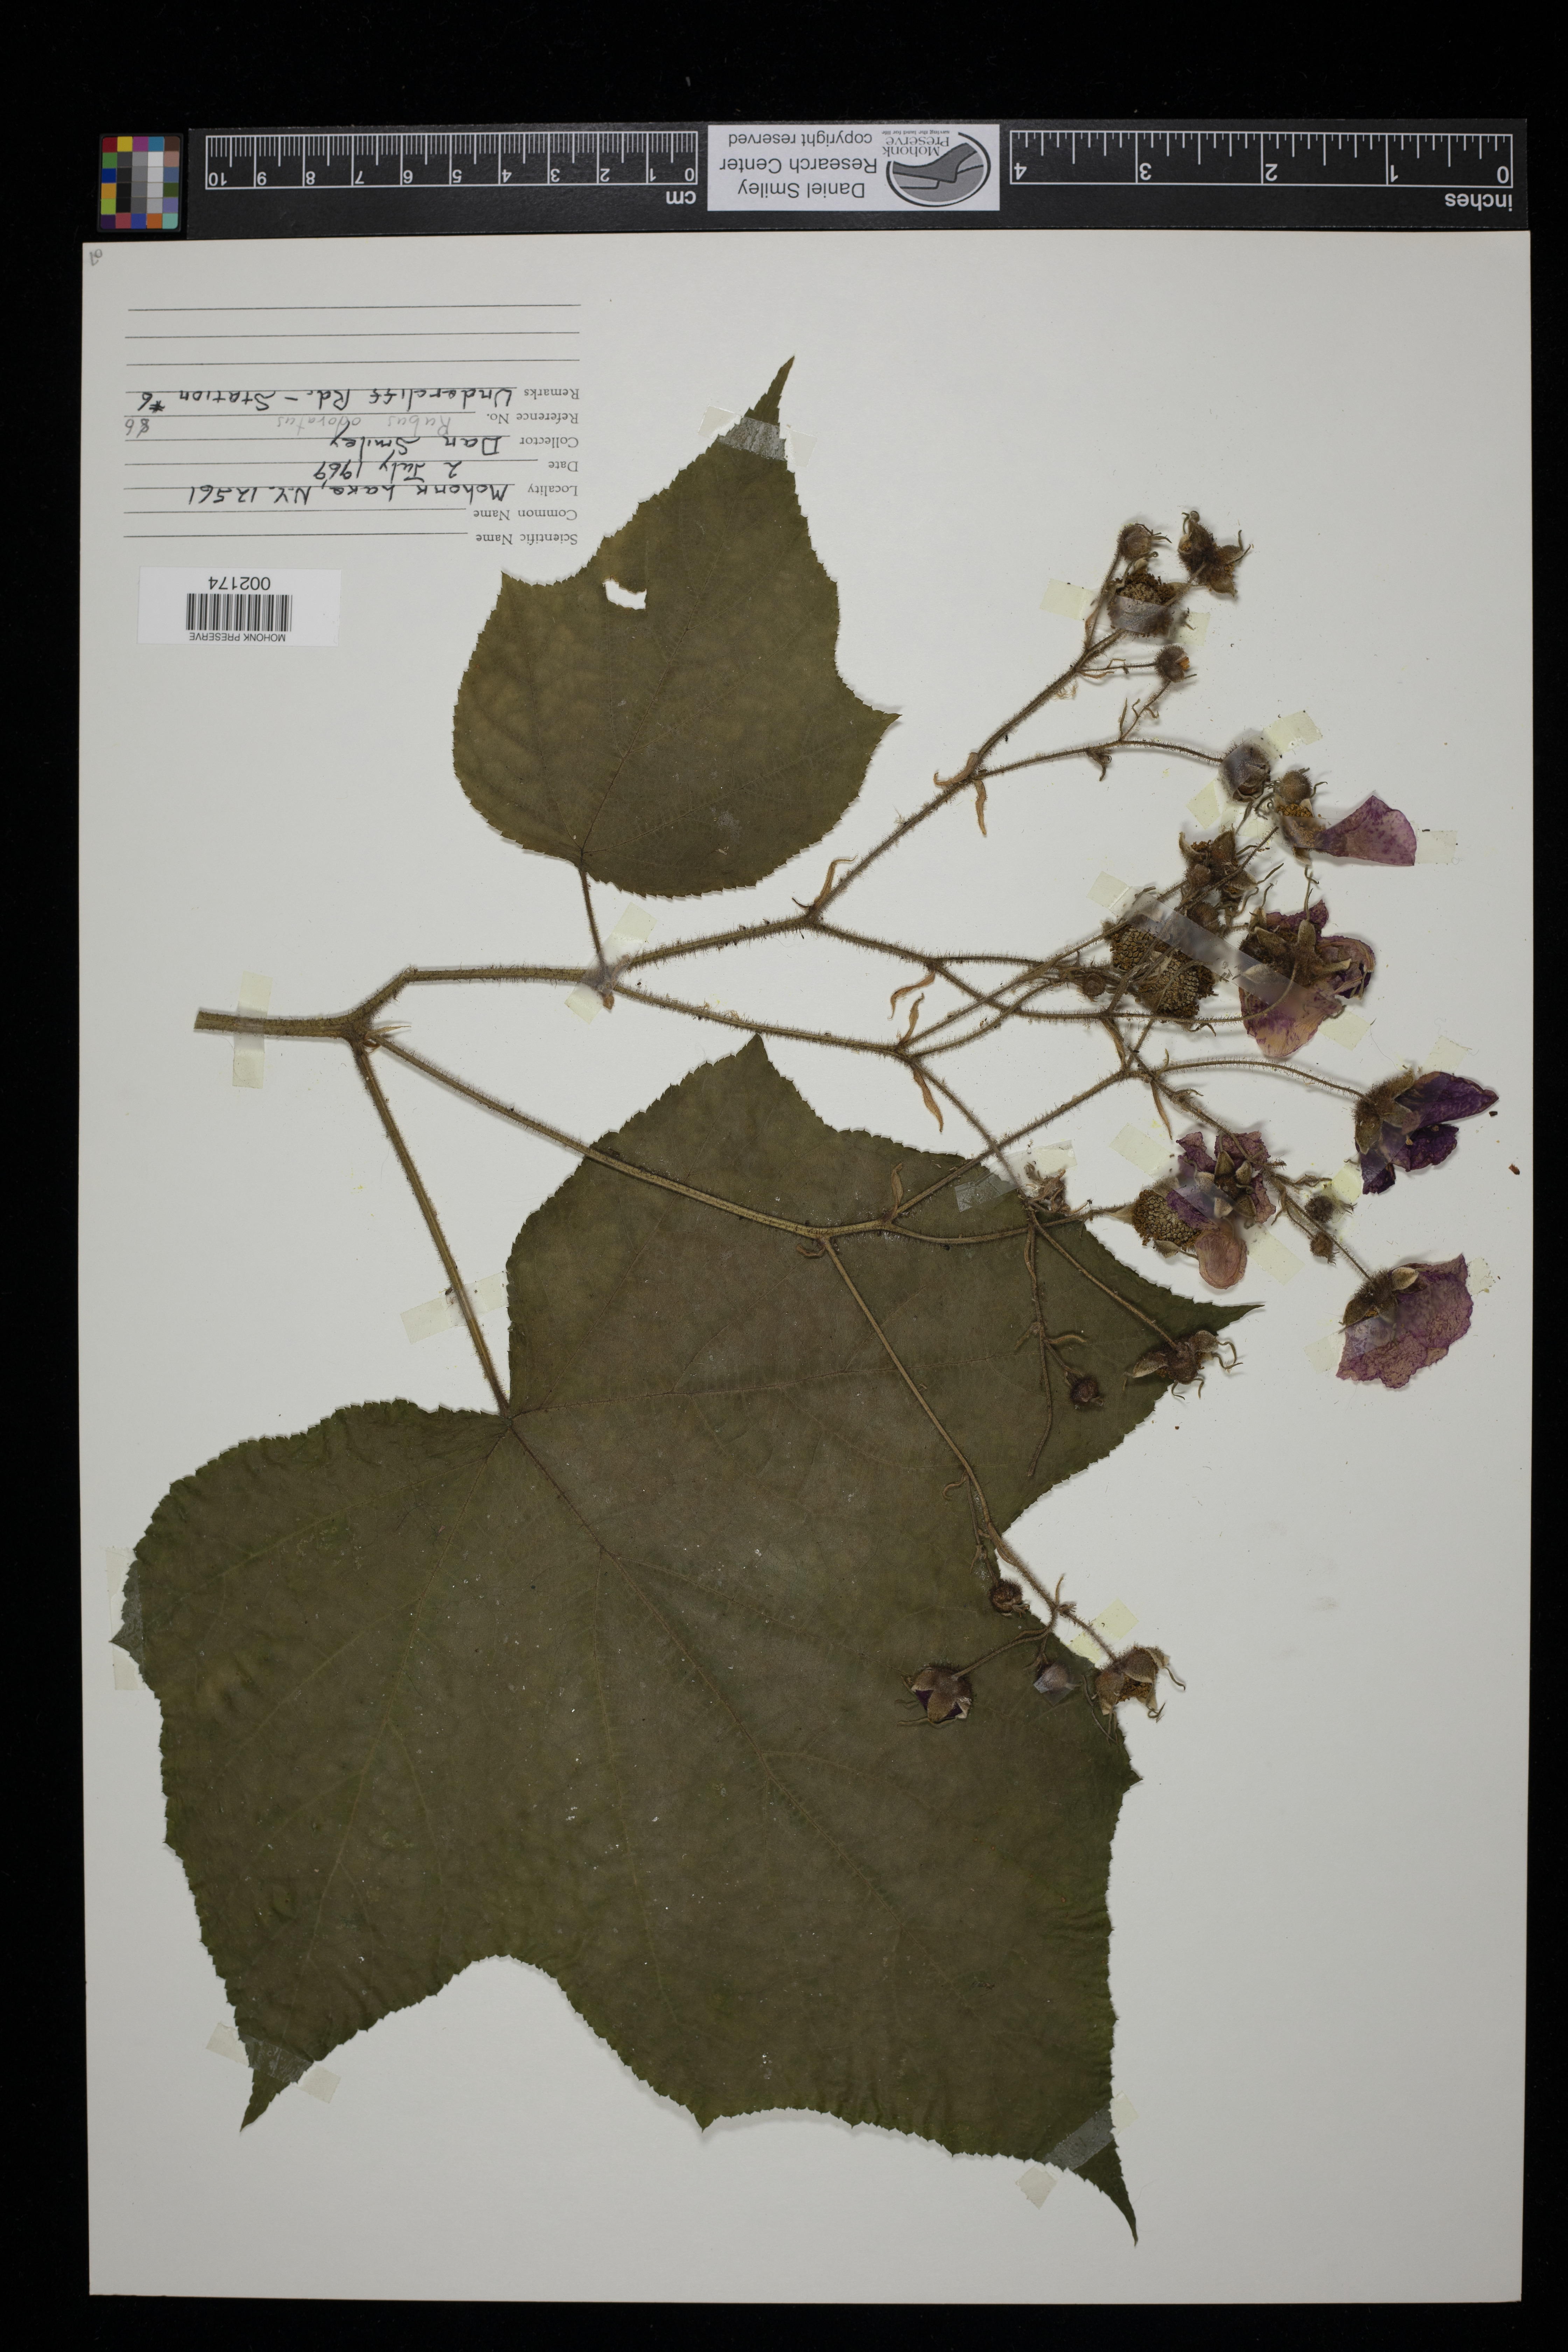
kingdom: Plantae
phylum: Tracheophyta
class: Magnoliopsida
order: Rosales
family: Rosaceae
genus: Rubus
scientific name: Rubus odoratus
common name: Purple-flowered raspberry
